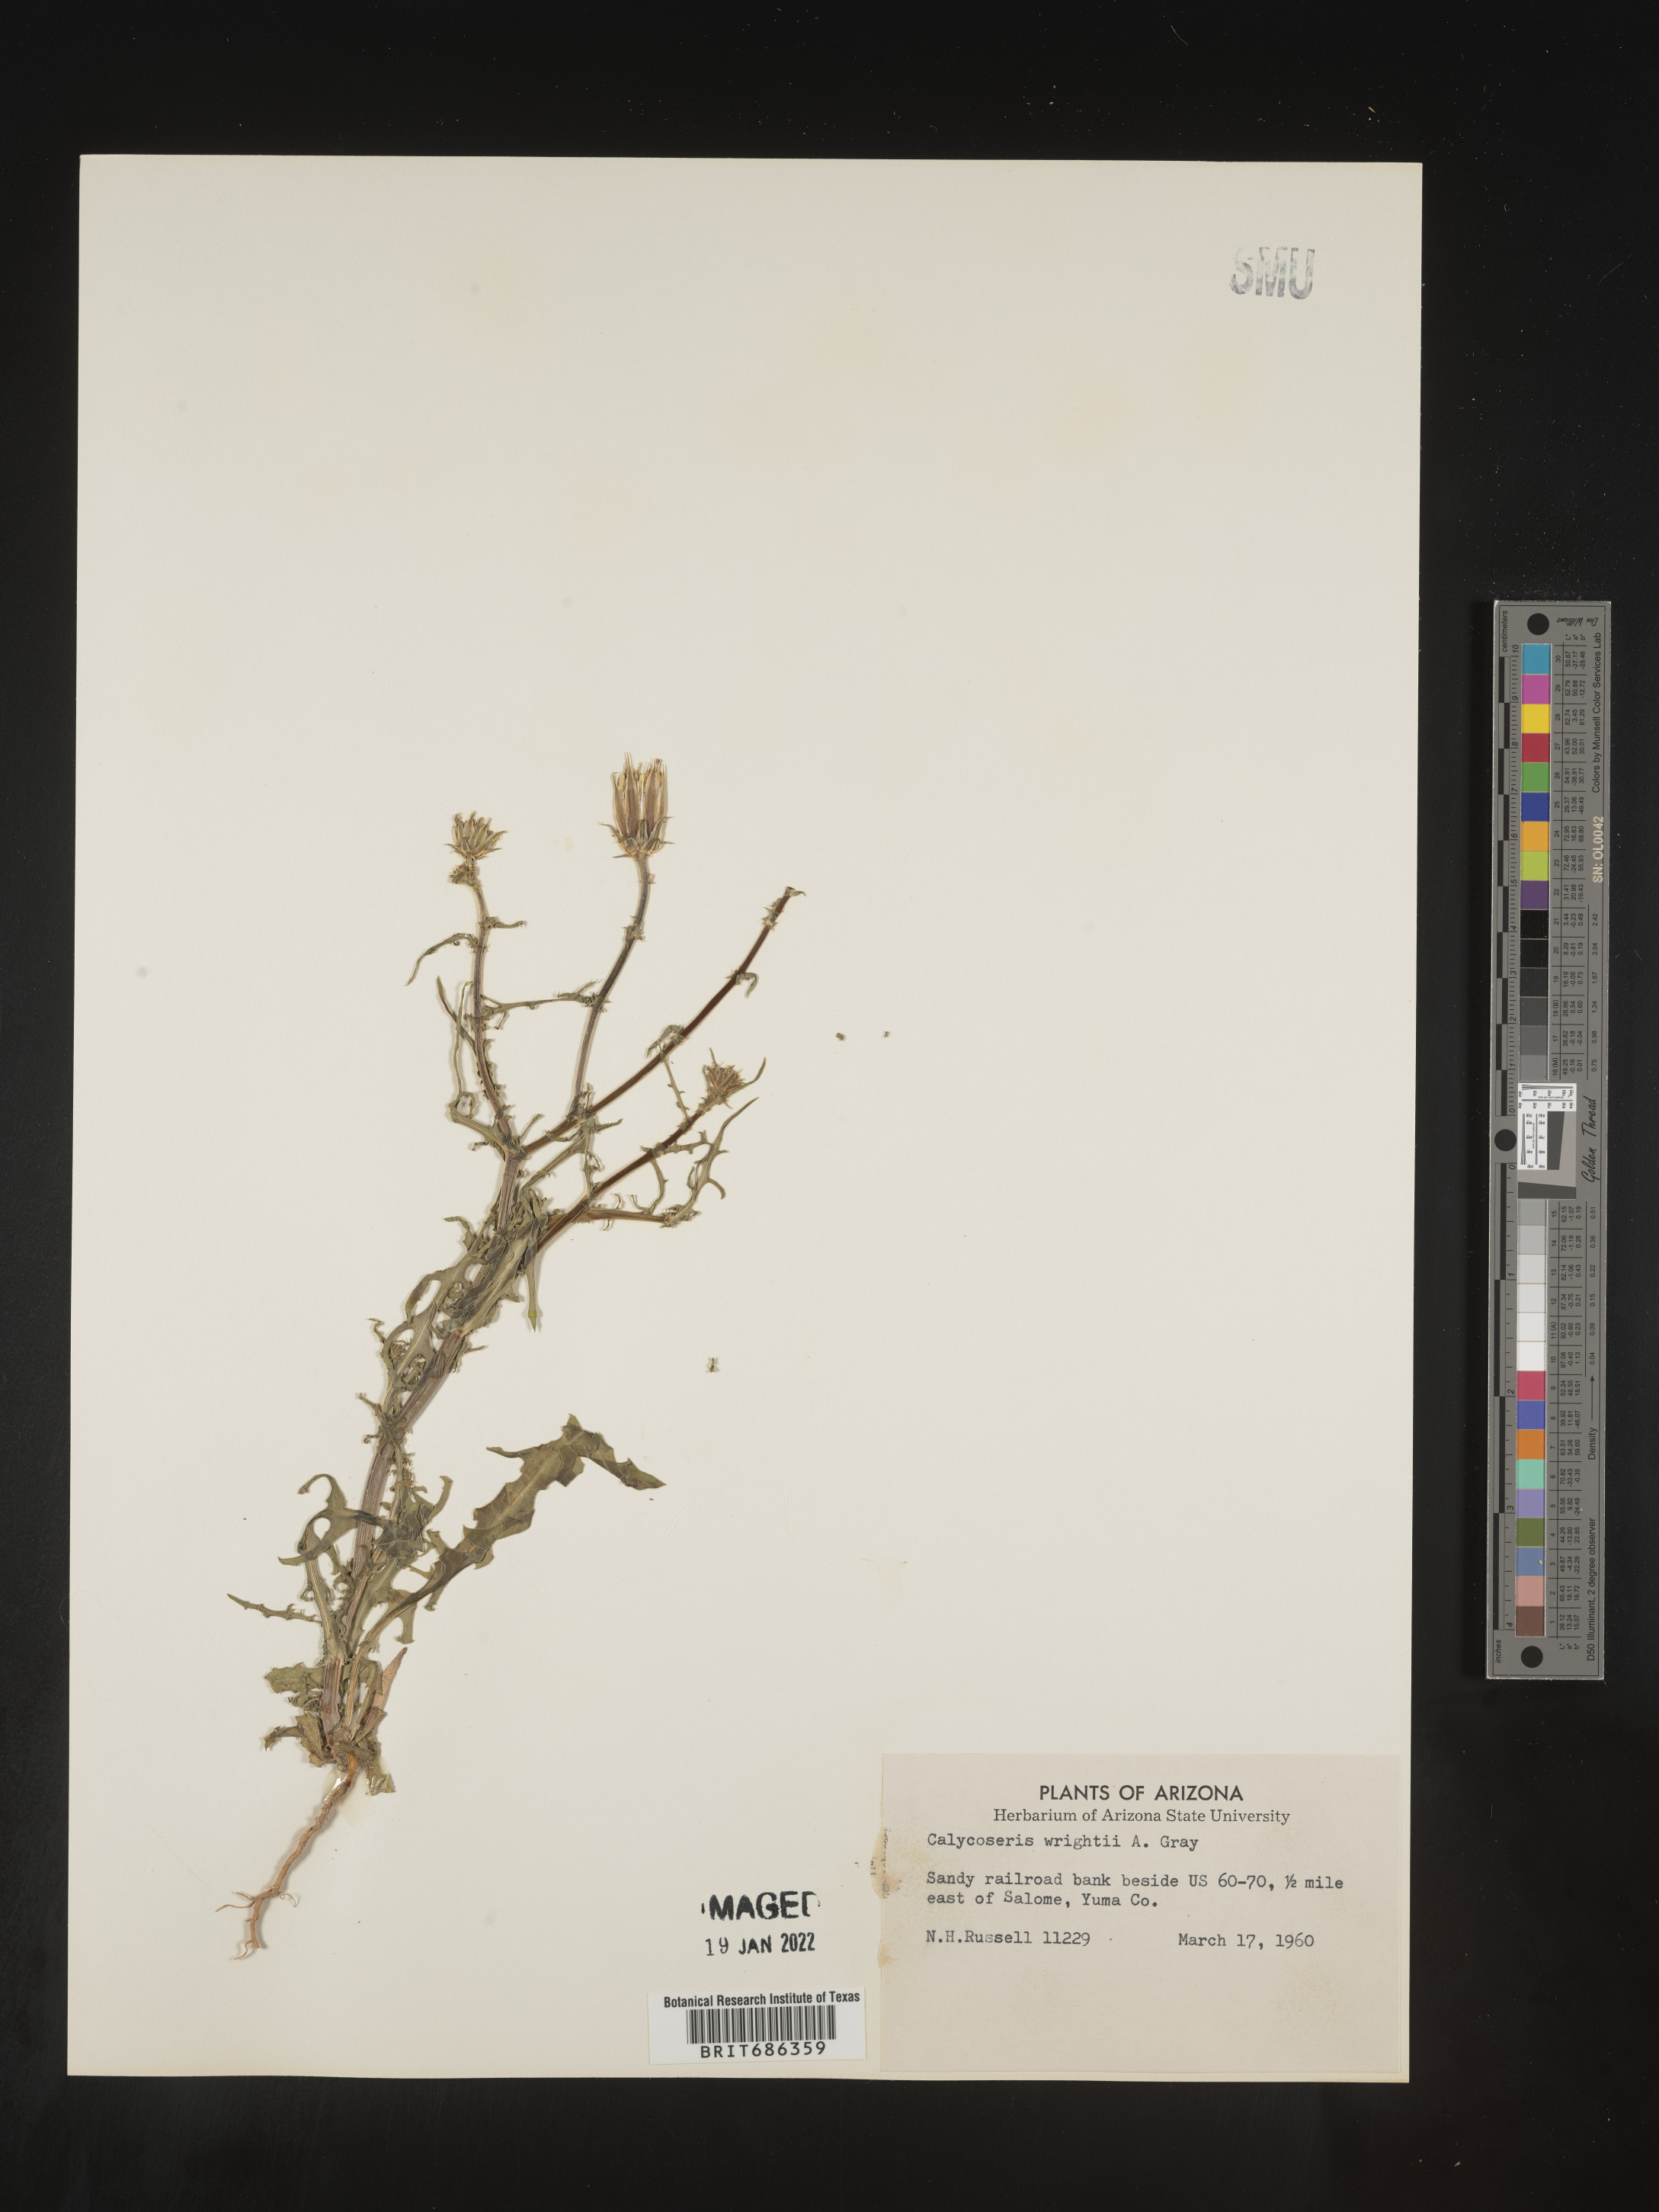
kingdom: Plantae
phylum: Tracheophyta
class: Magnoliopsida
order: Asterales
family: Asteraceae
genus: Calycoseris
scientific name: Calycoseris
